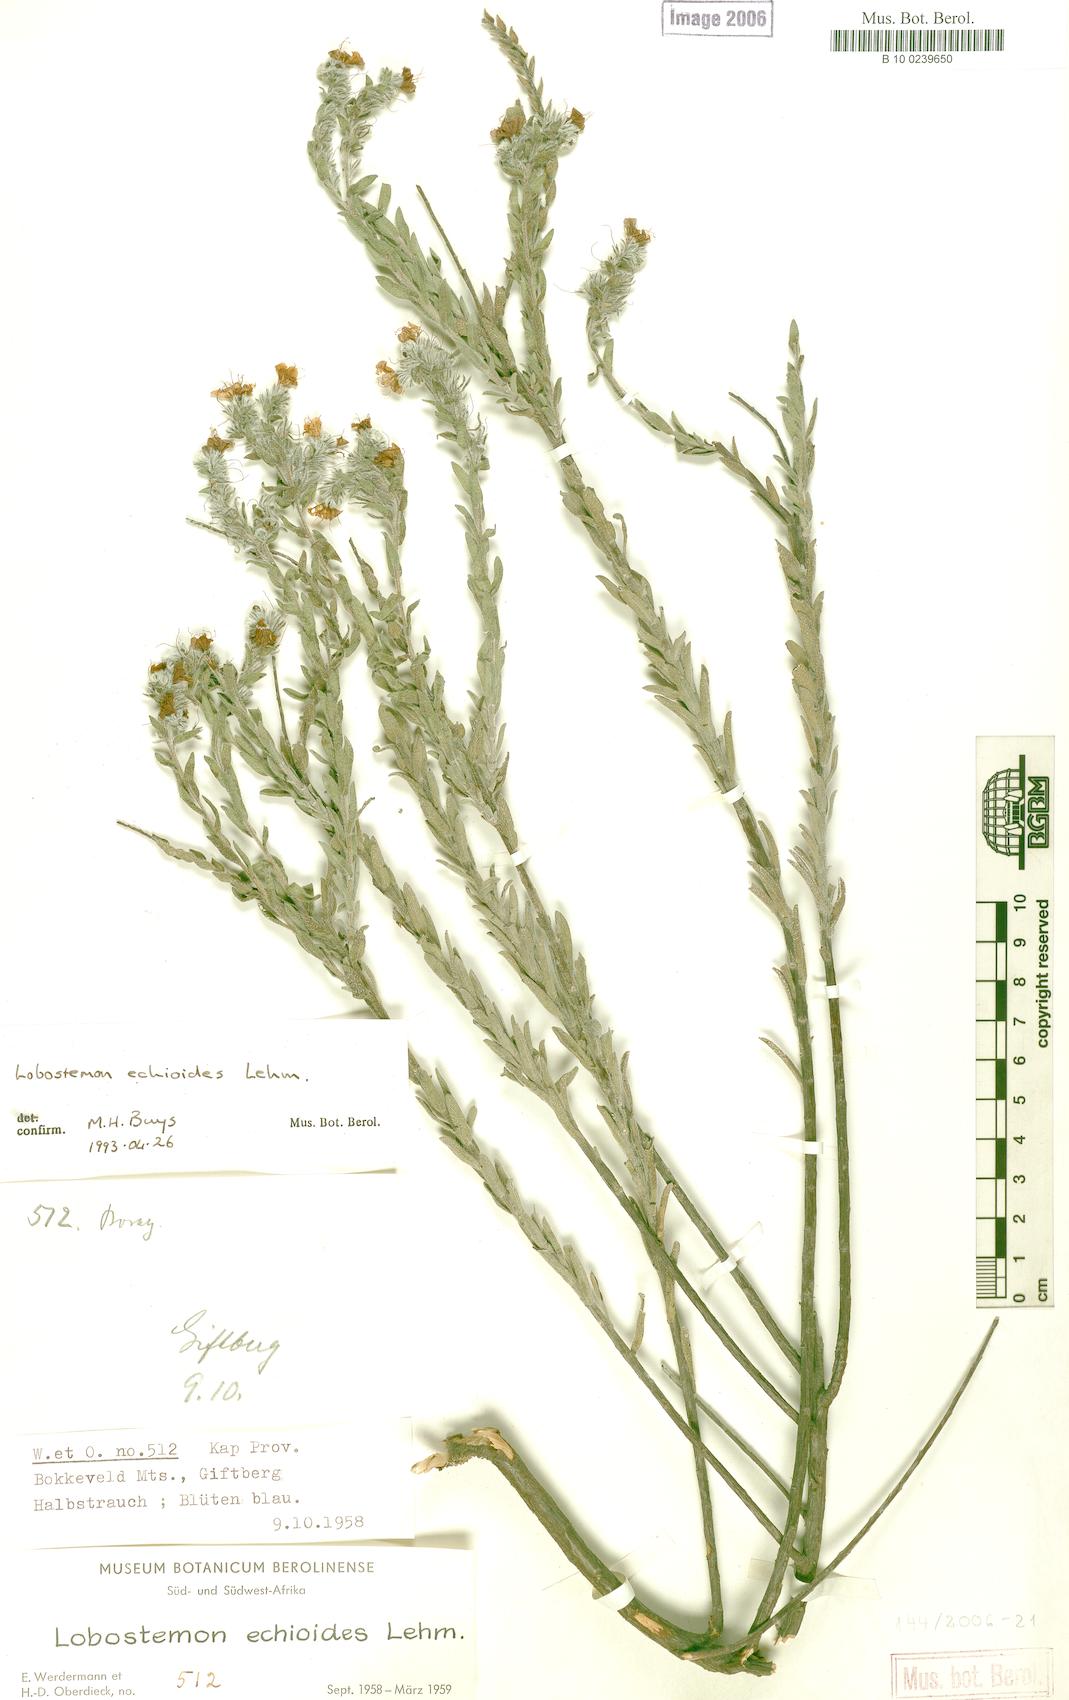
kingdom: Plantae
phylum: Tracheophyta
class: Magnoliopsida
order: Boraginales
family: Boraginaceae
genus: Lobostemon
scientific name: Lobostemon echioides
